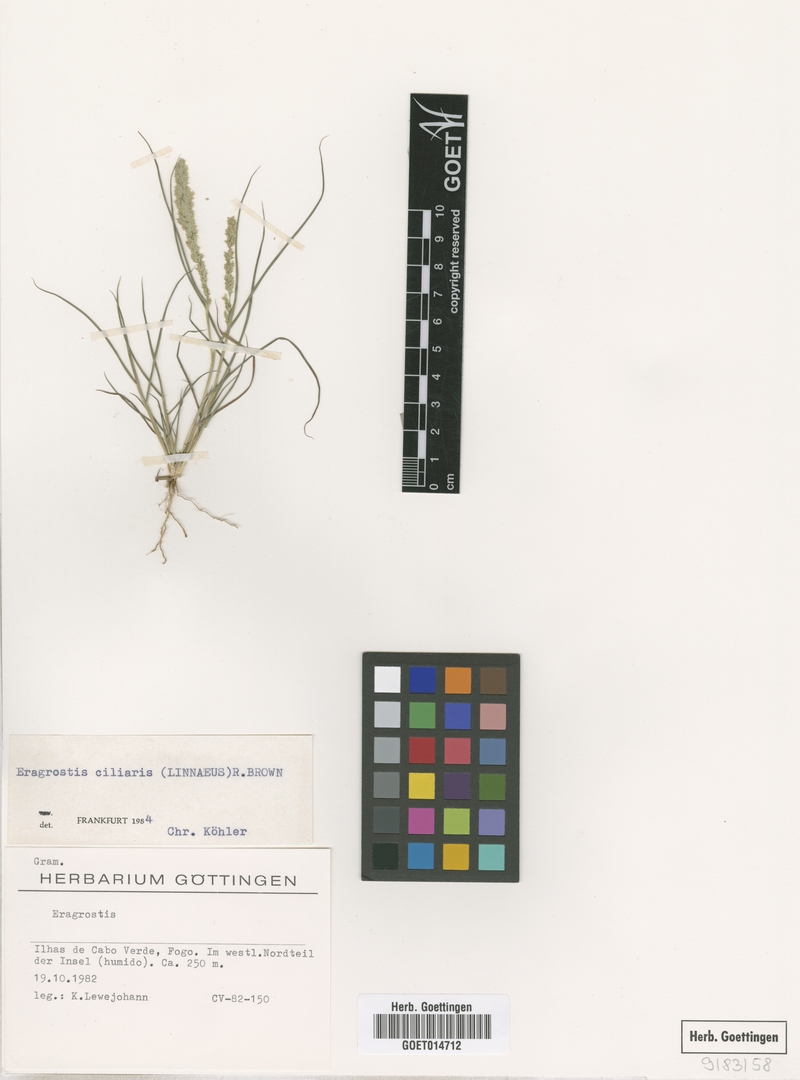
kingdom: Plantae
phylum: Tracheophyta
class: Liliopsida
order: Poales
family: Poaceae
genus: Eragrostis
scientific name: Eragrostis ciliaris
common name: Gophertail lovegrass
